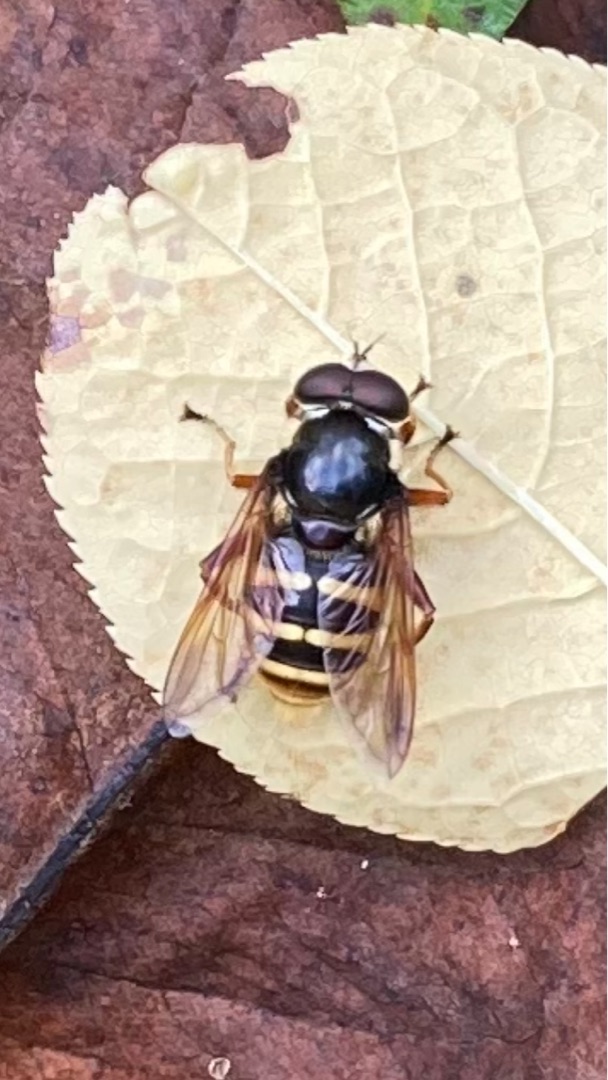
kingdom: Animalia
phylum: Arthropoda
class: Insecta
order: Diptera
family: Syrphidae
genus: Sericomyia
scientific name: Sericomyia silentis
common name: Tørve-silkesvirreflue
